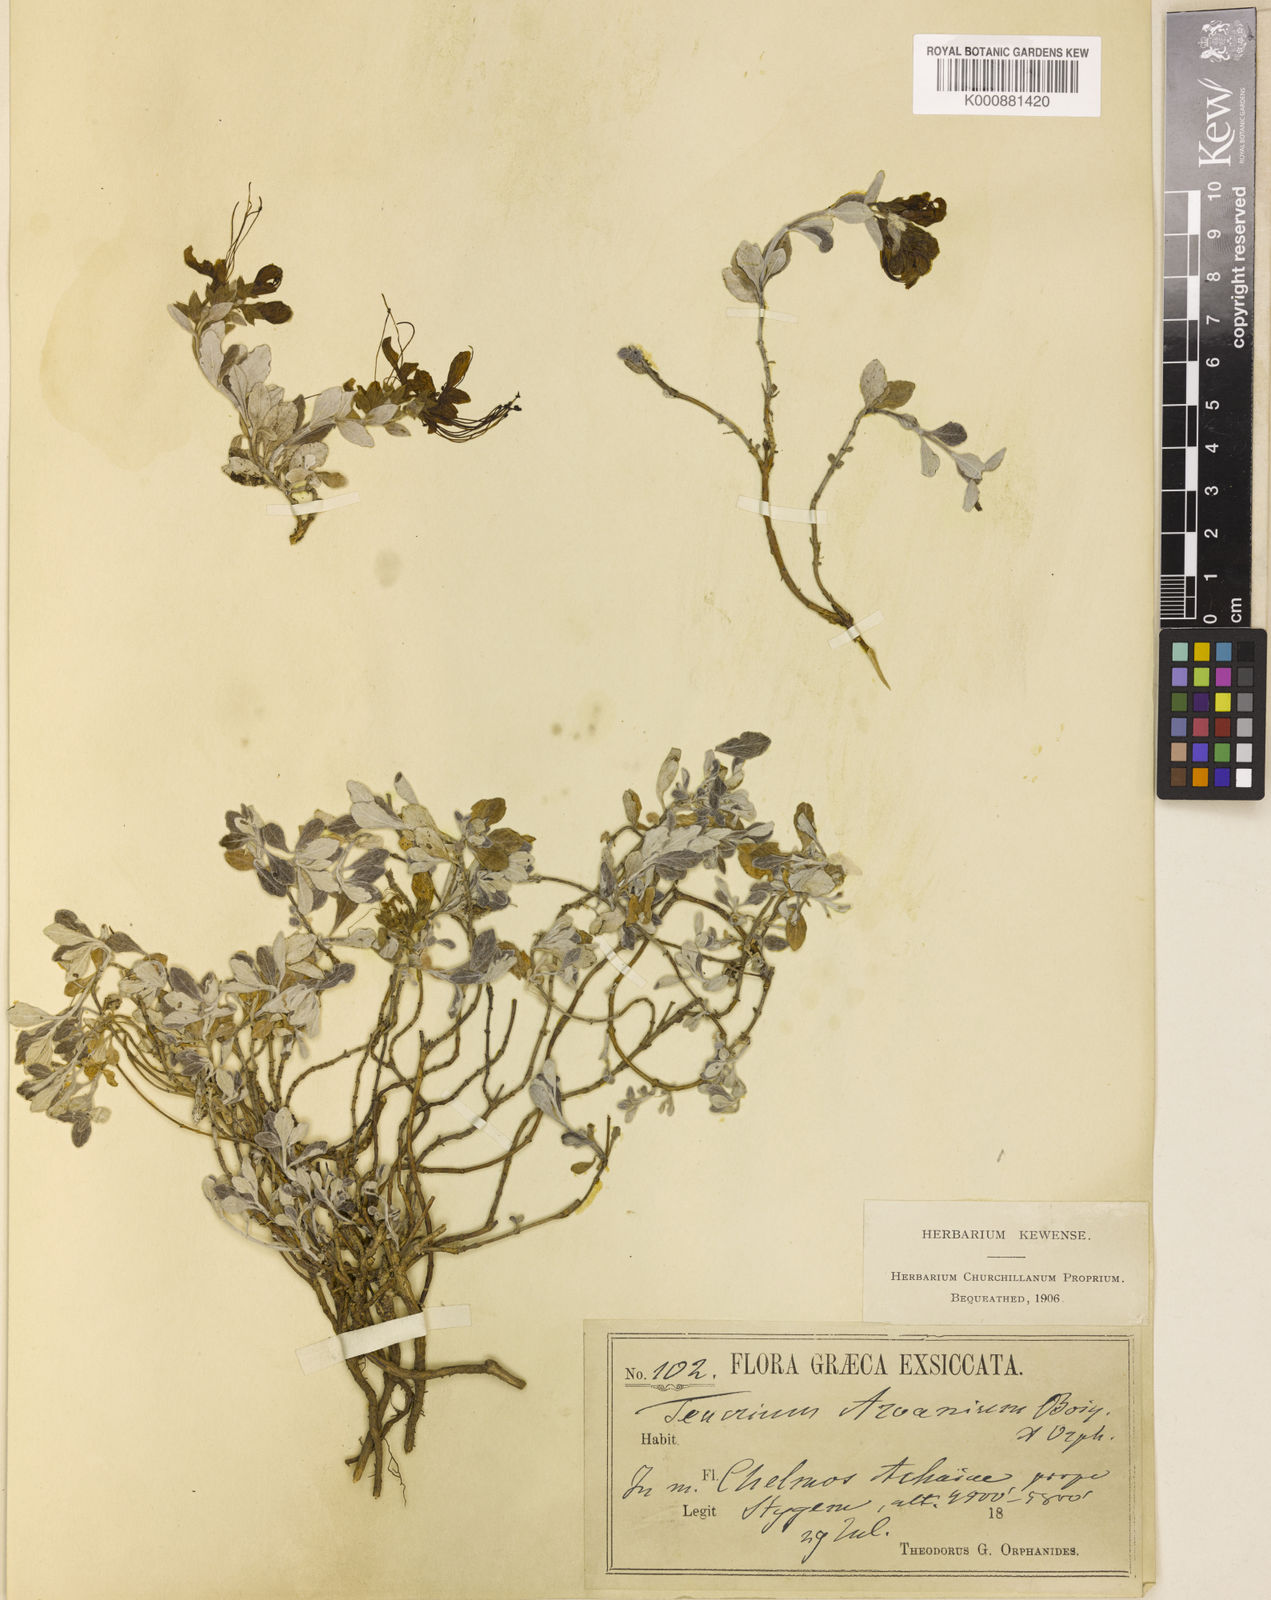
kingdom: Plantae
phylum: Tracheophyta
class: Magnoliopsida
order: Lamiales
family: Lamiaceae
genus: Teucrium
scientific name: Teucrium aroanium
